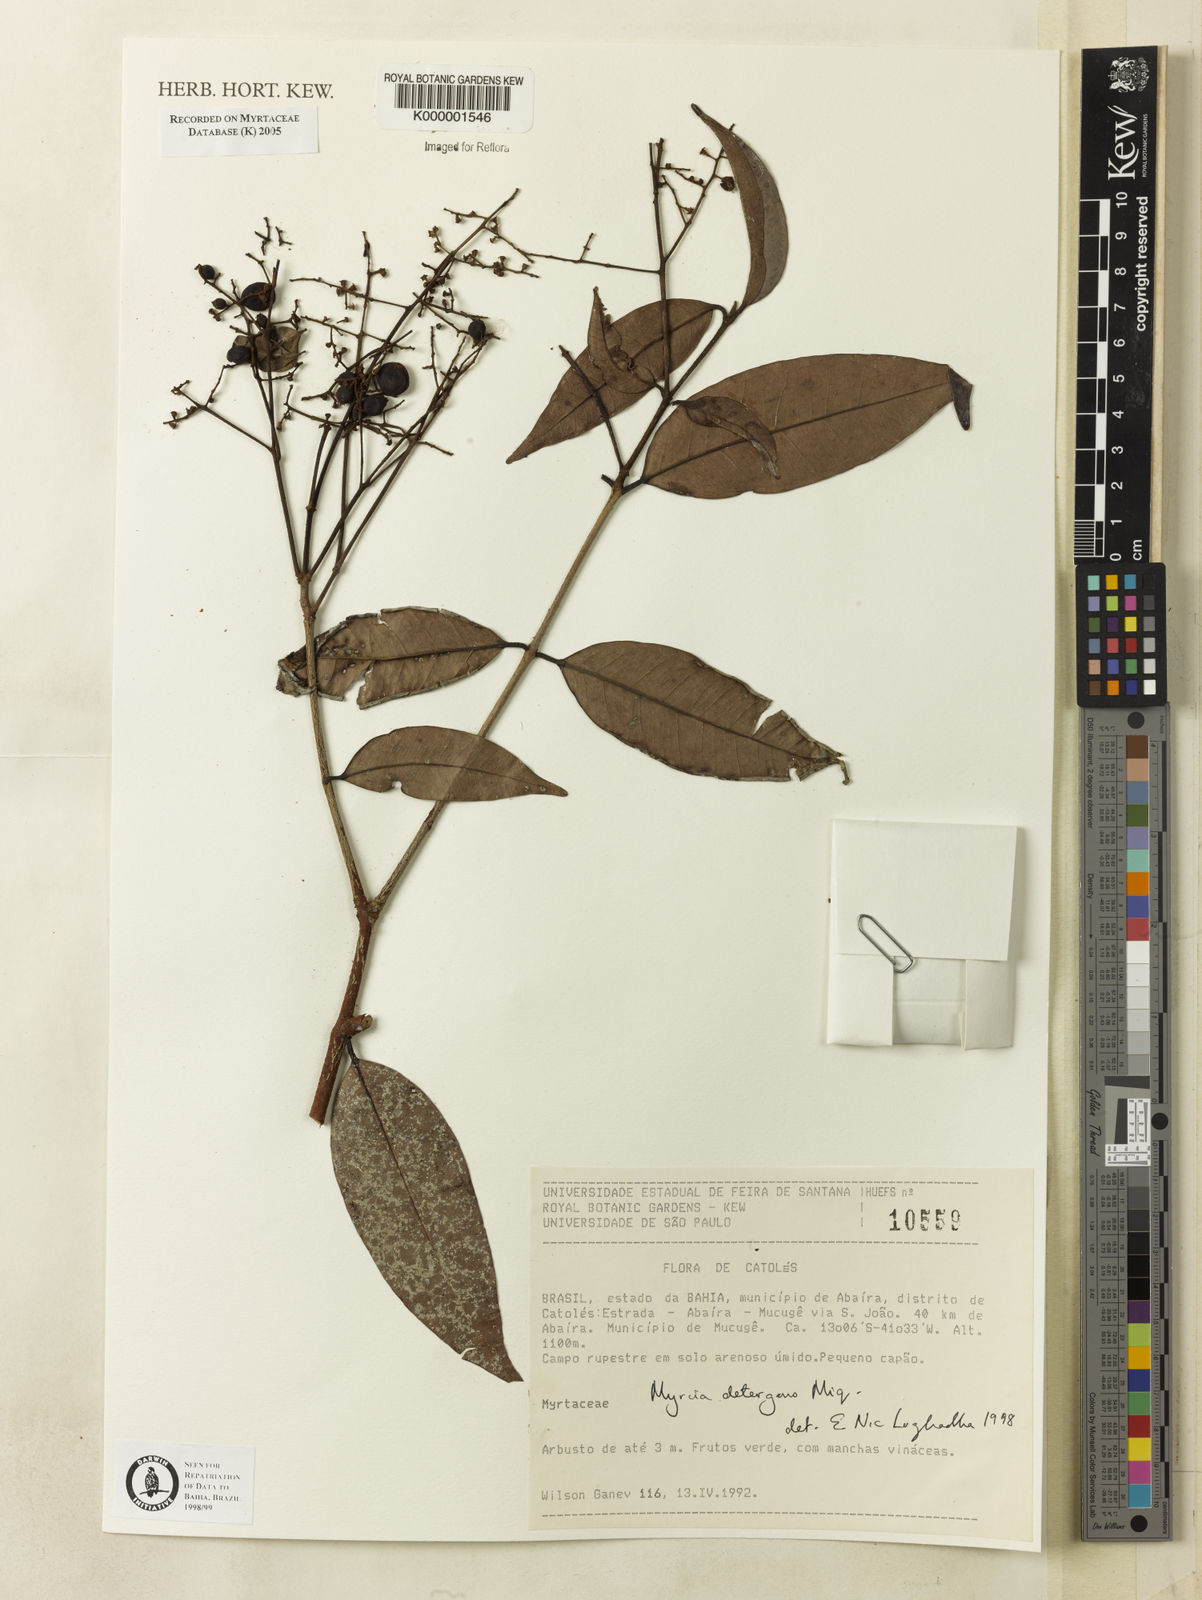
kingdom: Plantae
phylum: Tracheophyta
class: Magnoliopsida
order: Myrtales
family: Myrtaceae
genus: Myrcia
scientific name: Myrcia amazonica
